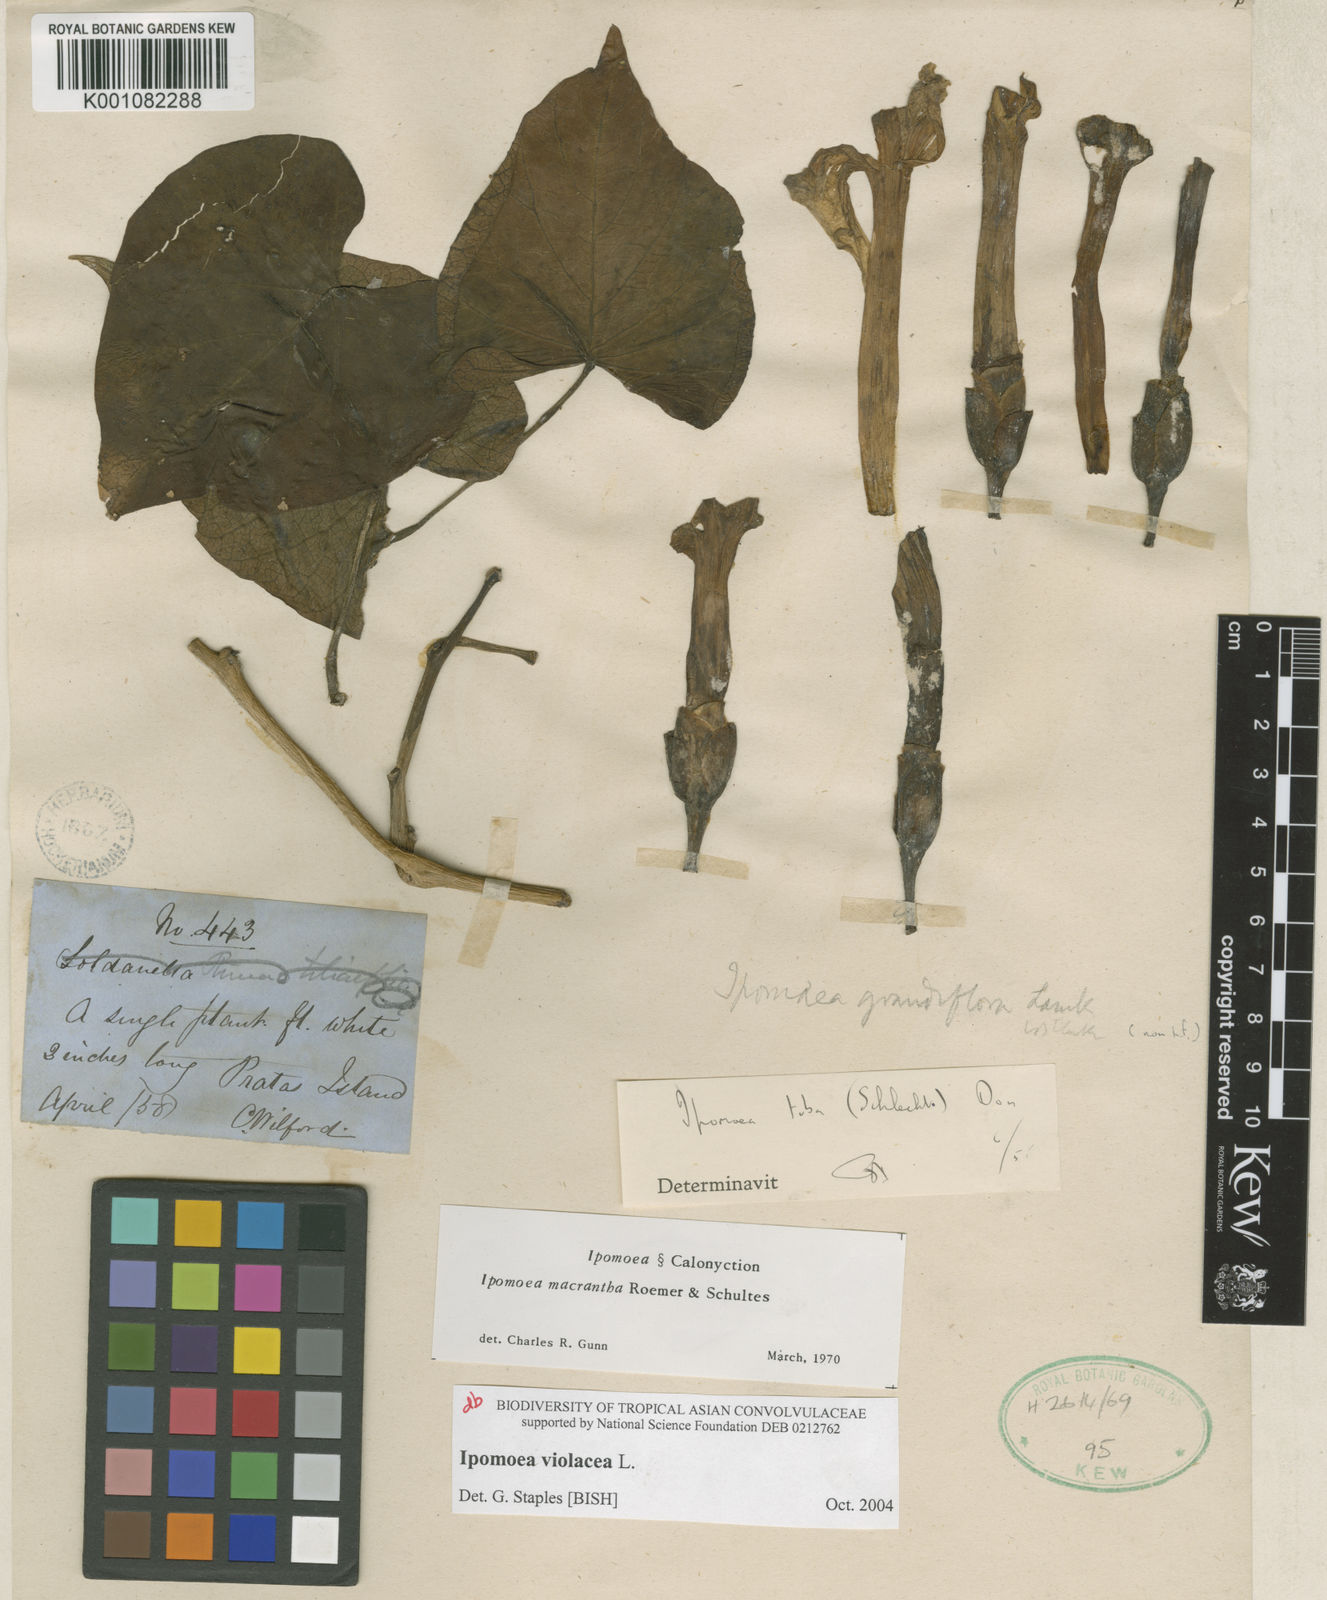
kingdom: Plantae
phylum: Tracheophyta
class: Magnoliopsida
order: Solanales
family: Convolvulaceae
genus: Ipomoea
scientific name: Ipomoea violacea
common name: Beach moonflower
